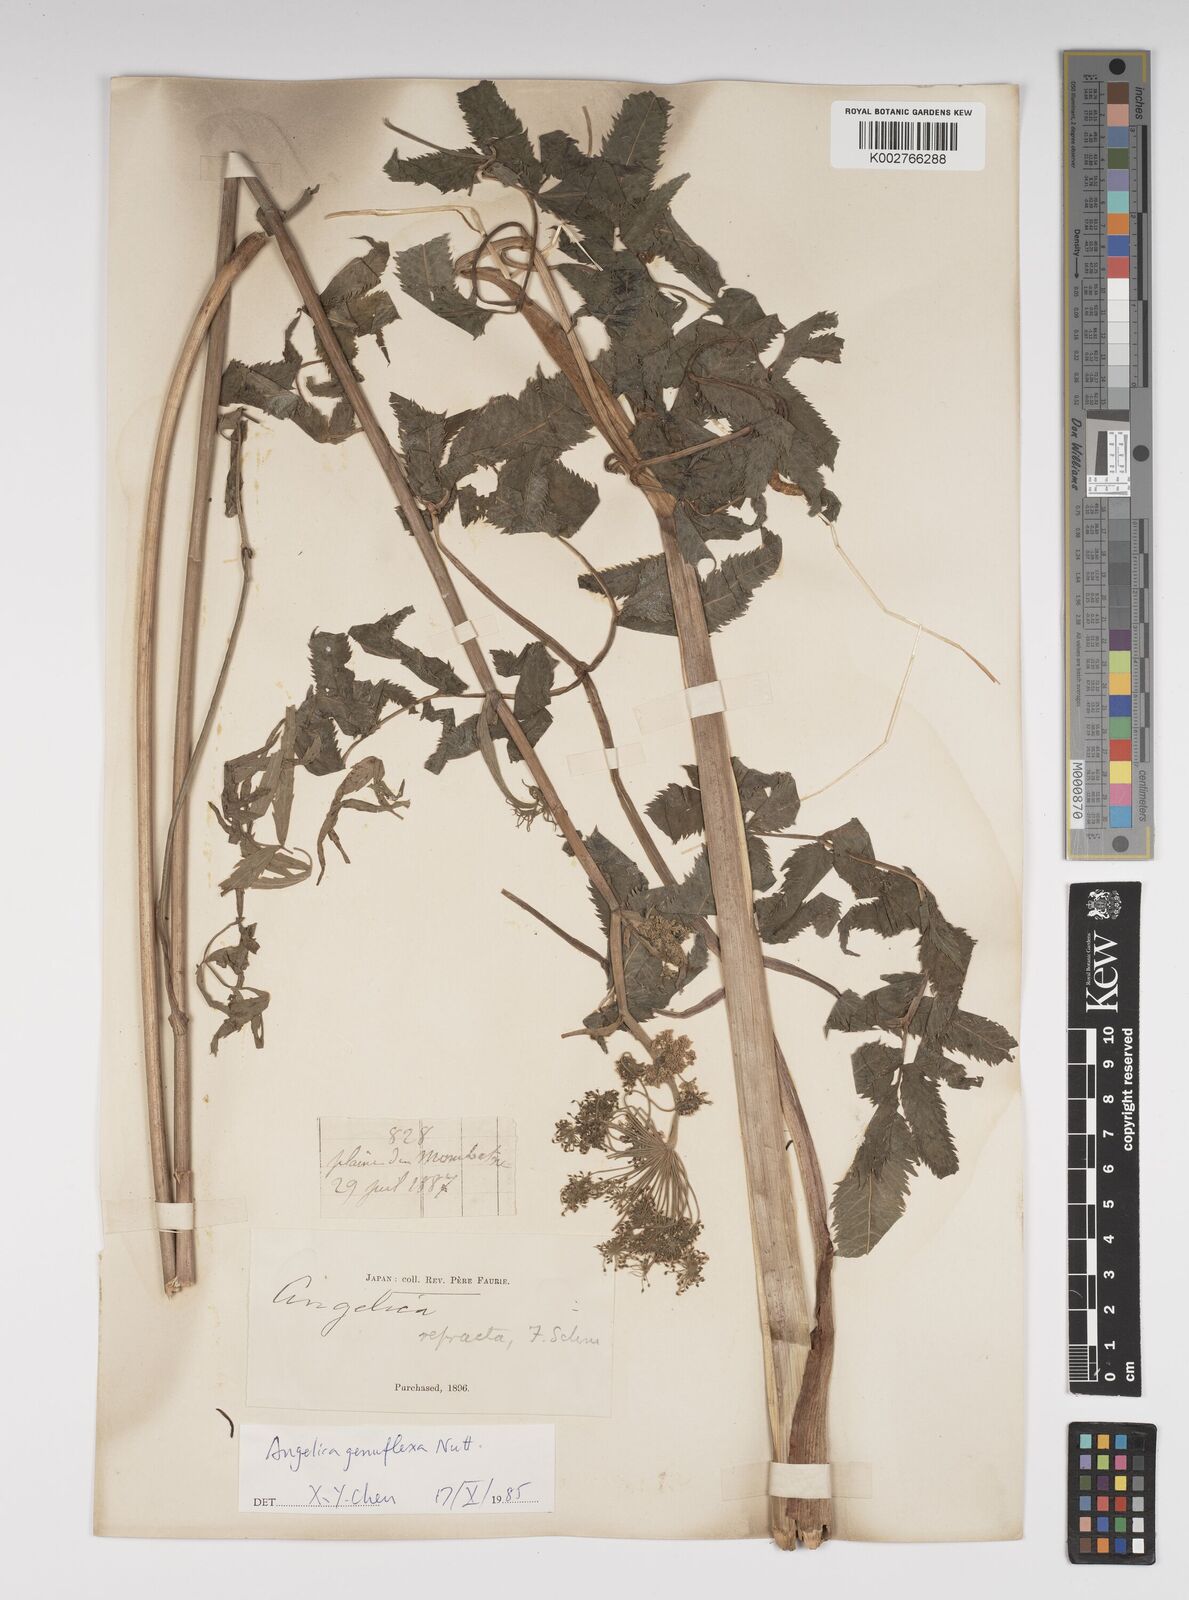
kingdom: Plantae
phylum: Tracheophyta
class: Magnoliopsida
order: Apiales
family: Apiaceae
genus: Angelica
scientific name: Angelica genuflexa
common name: Kneeling angelica
